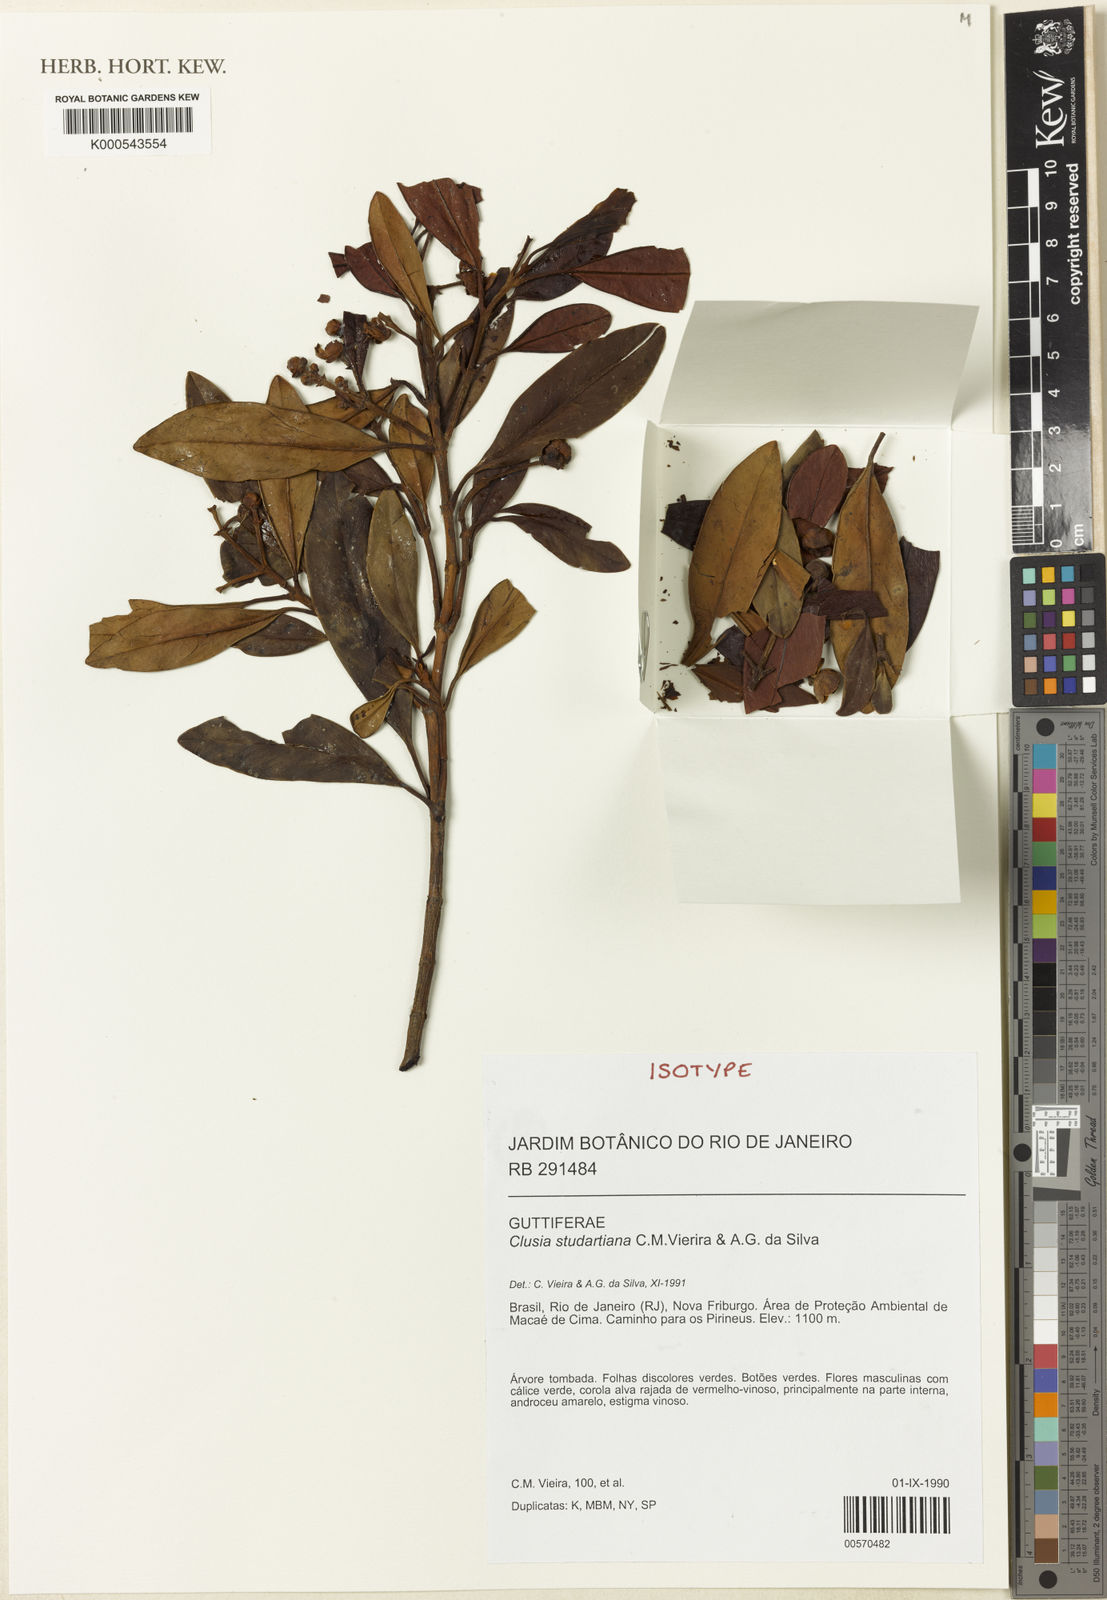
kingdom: Plantae
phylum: Tracheophyta
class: Magnoliopsida
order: Malpighiales
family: Clusiaceae
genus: Clusia
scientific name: Clusia studartiana
